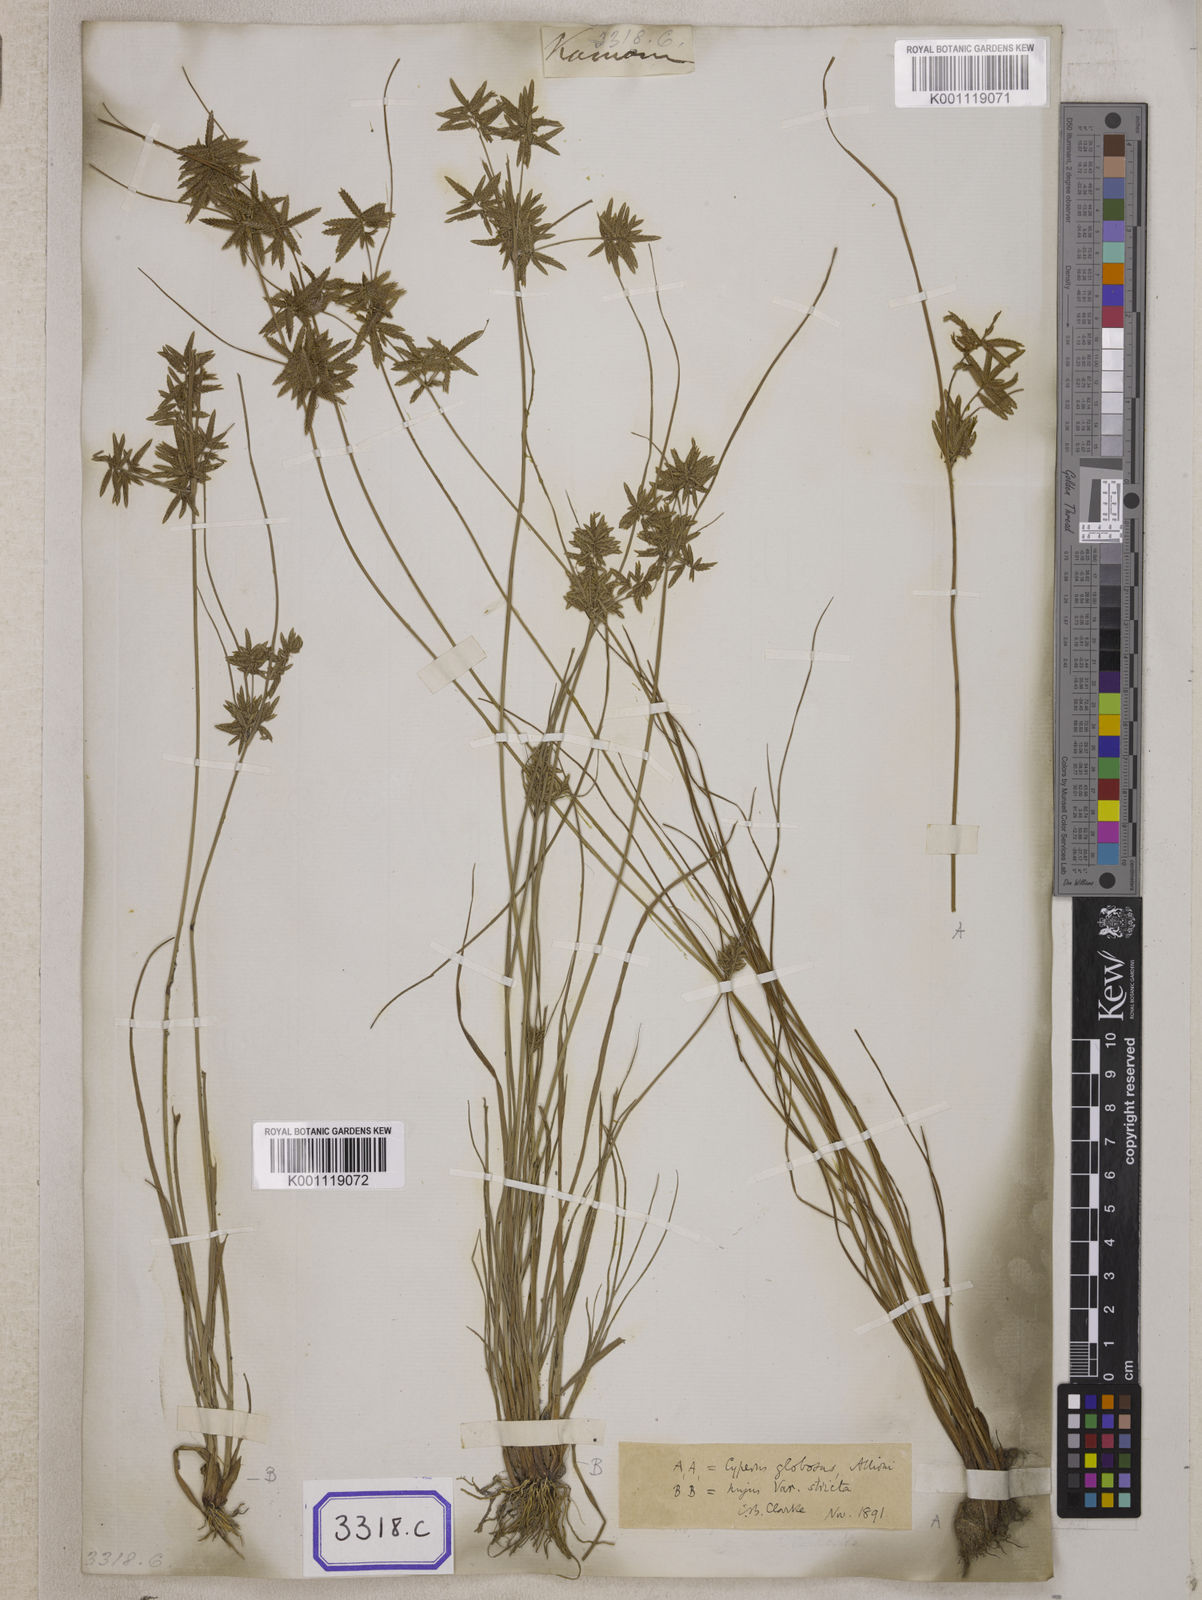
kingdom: Plantae
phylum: Tracheophyta
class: Liliopsida
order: Poales
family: Cyperaceae
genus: Cyperus
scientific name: Cyperus
